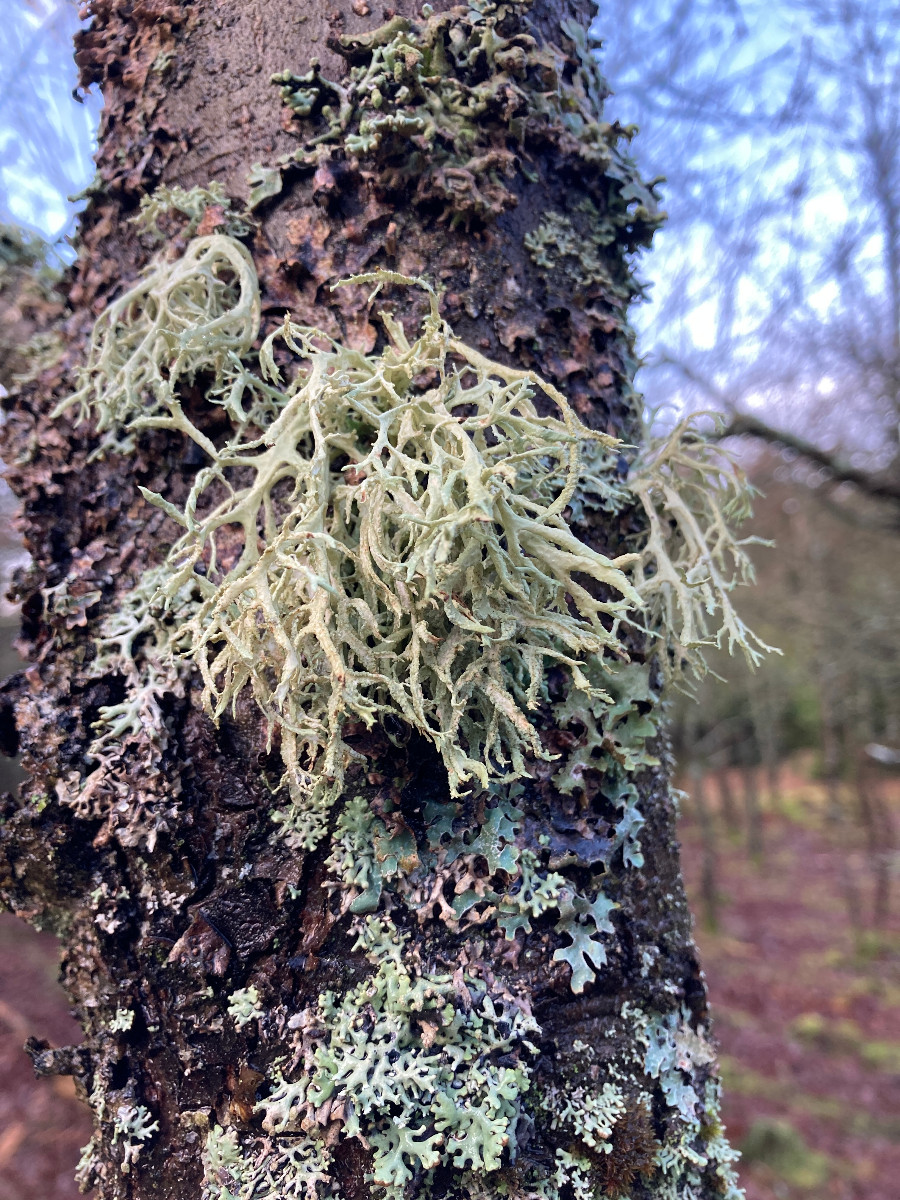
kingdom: Fungi
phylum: Ascomycota
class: Lecanoromycetes
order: Lecanorales
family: Parmeliaceae
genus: Evernia
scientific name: Evernia prunastri
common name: almindelig slåenlav
